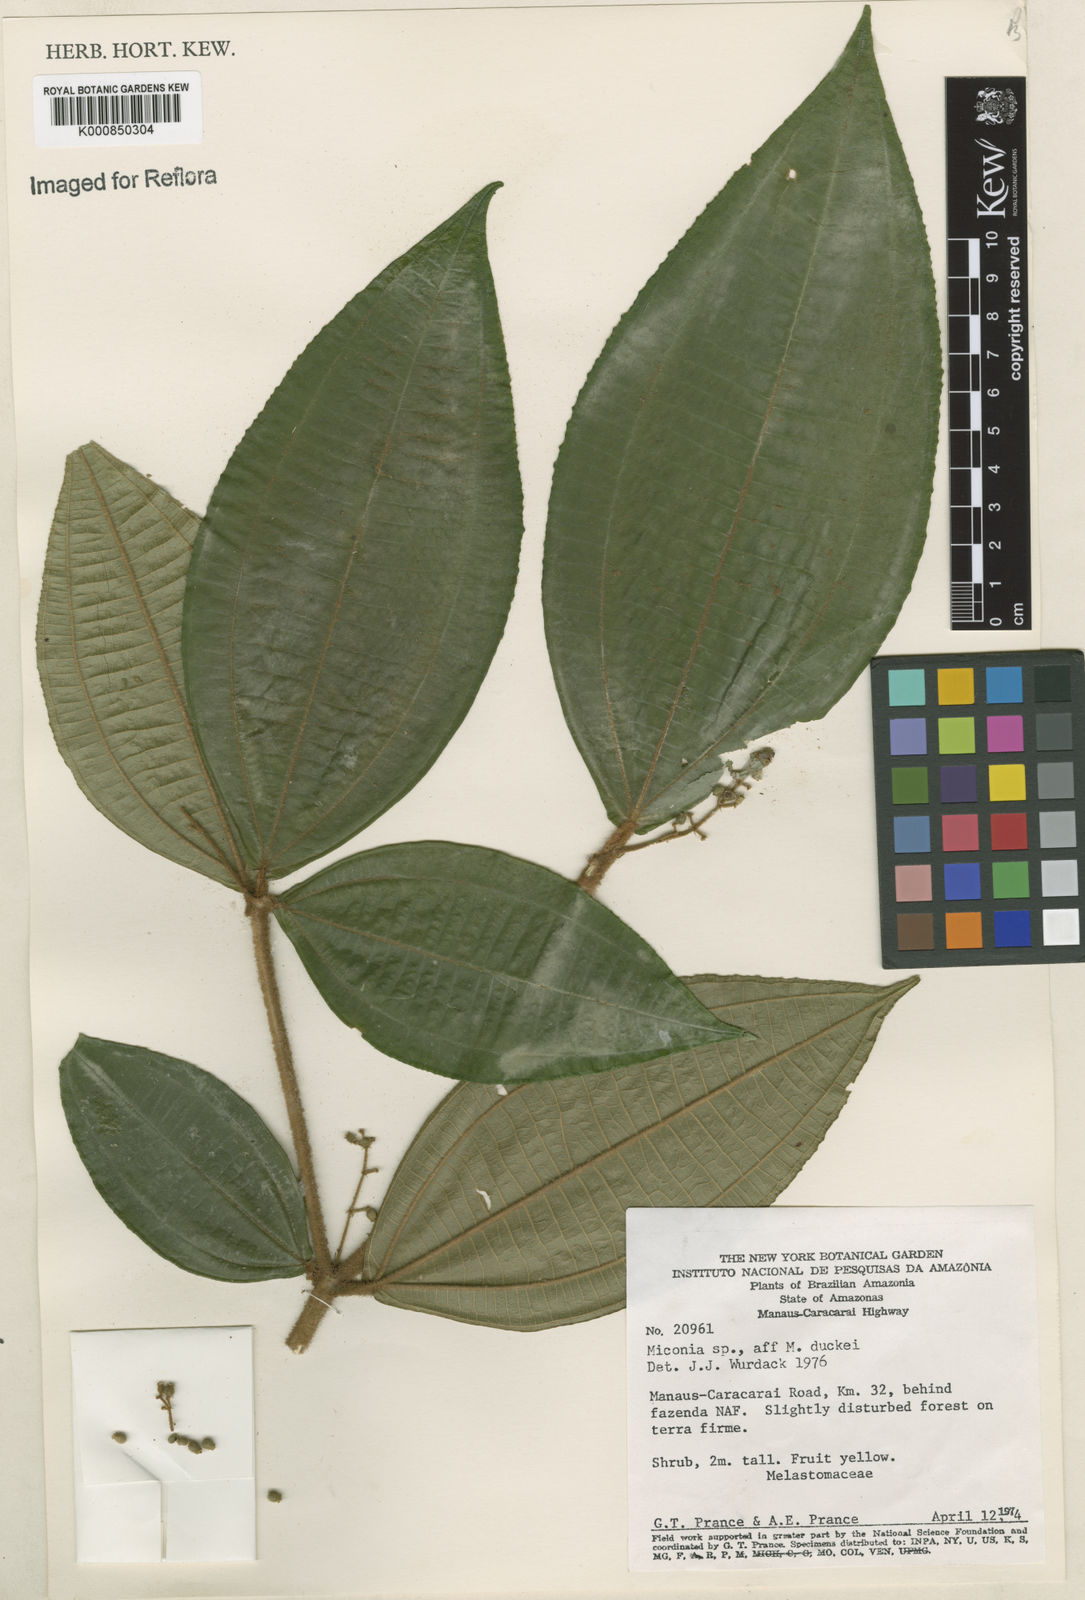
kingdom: Plantae
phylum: Tracheophyta
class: Magnoliopsida
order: Myrtales
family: Melastomataceae
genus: Miconia
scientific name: Miconia duckei
